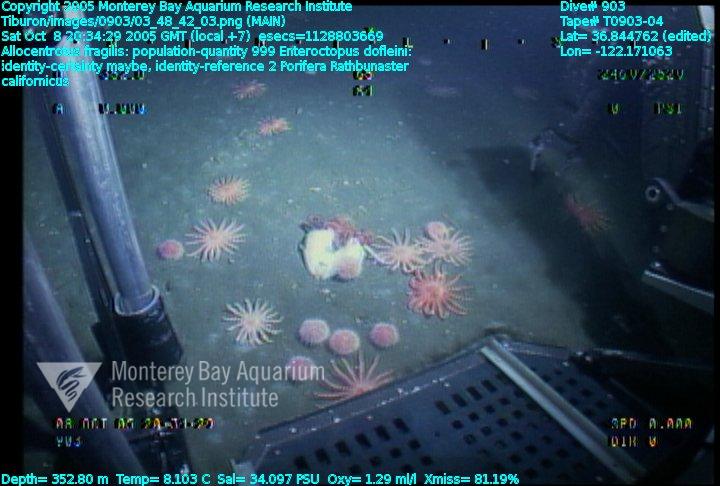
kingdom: Animalia
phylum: Porifera
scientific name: Porifera
